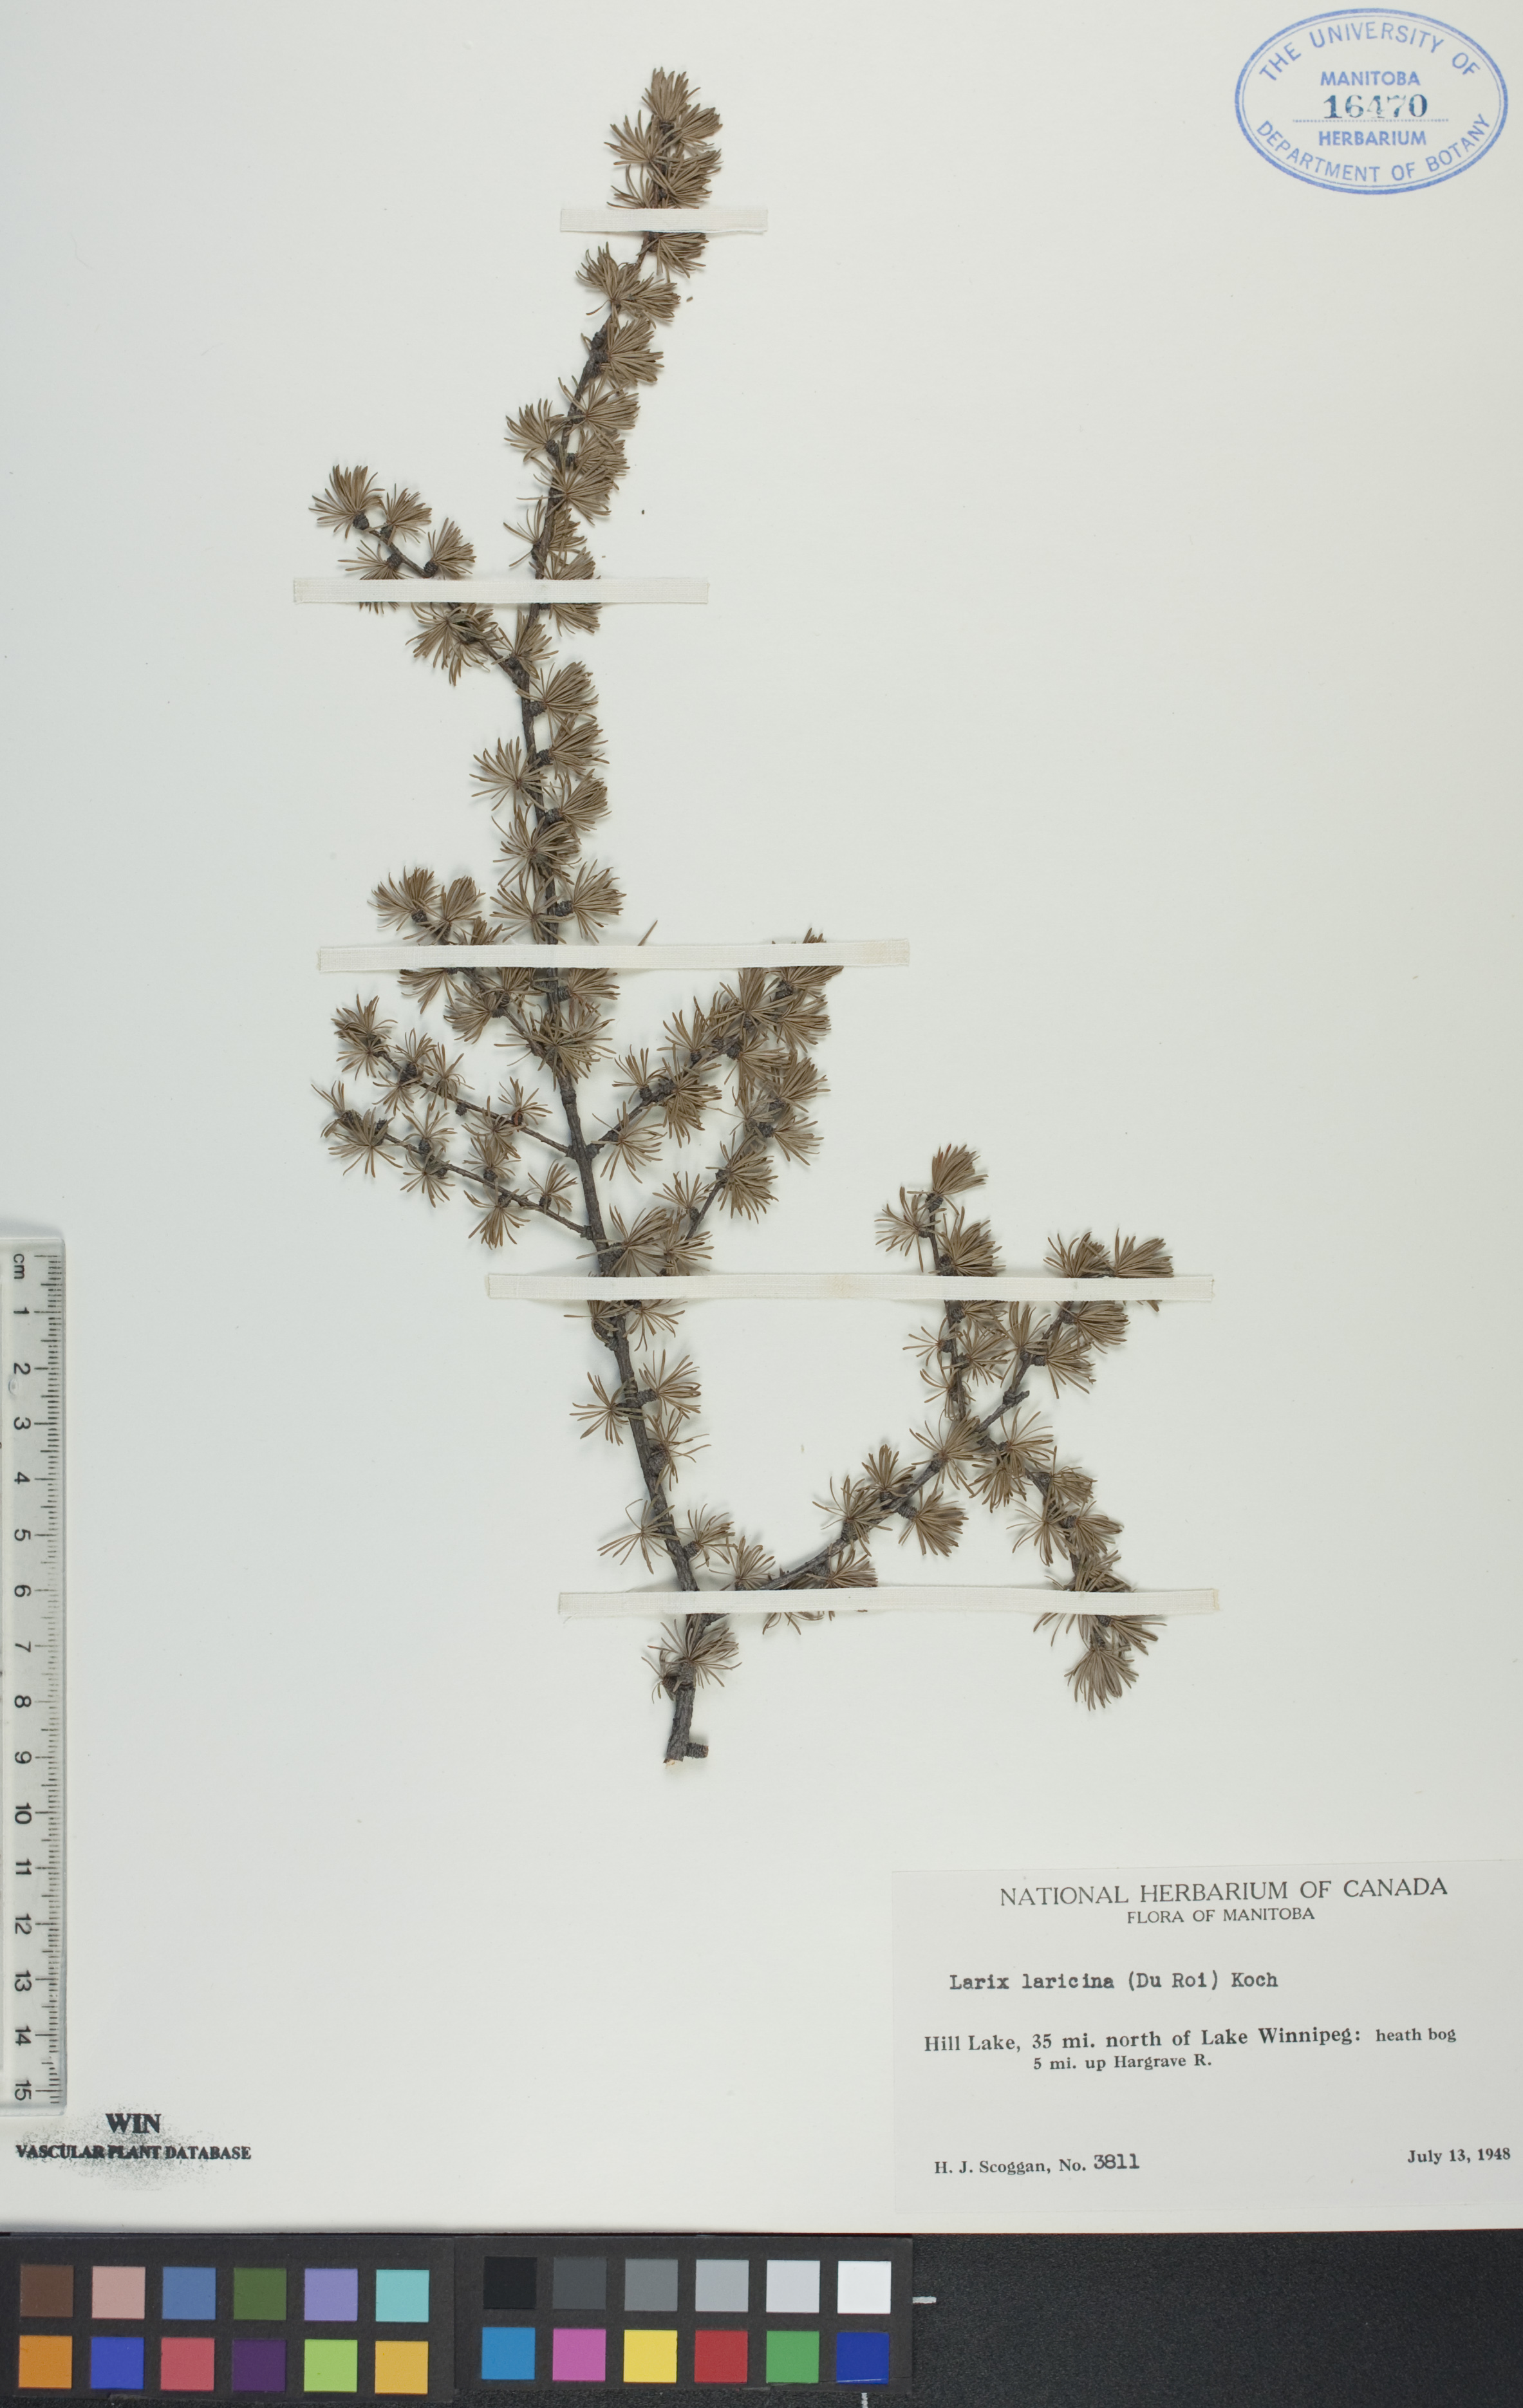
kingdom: Plantae
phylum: Tracheophyta
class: Pinopsida
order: Pinales
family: Pinaceae
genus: Larix
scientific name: Larix laricina
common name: American larch
